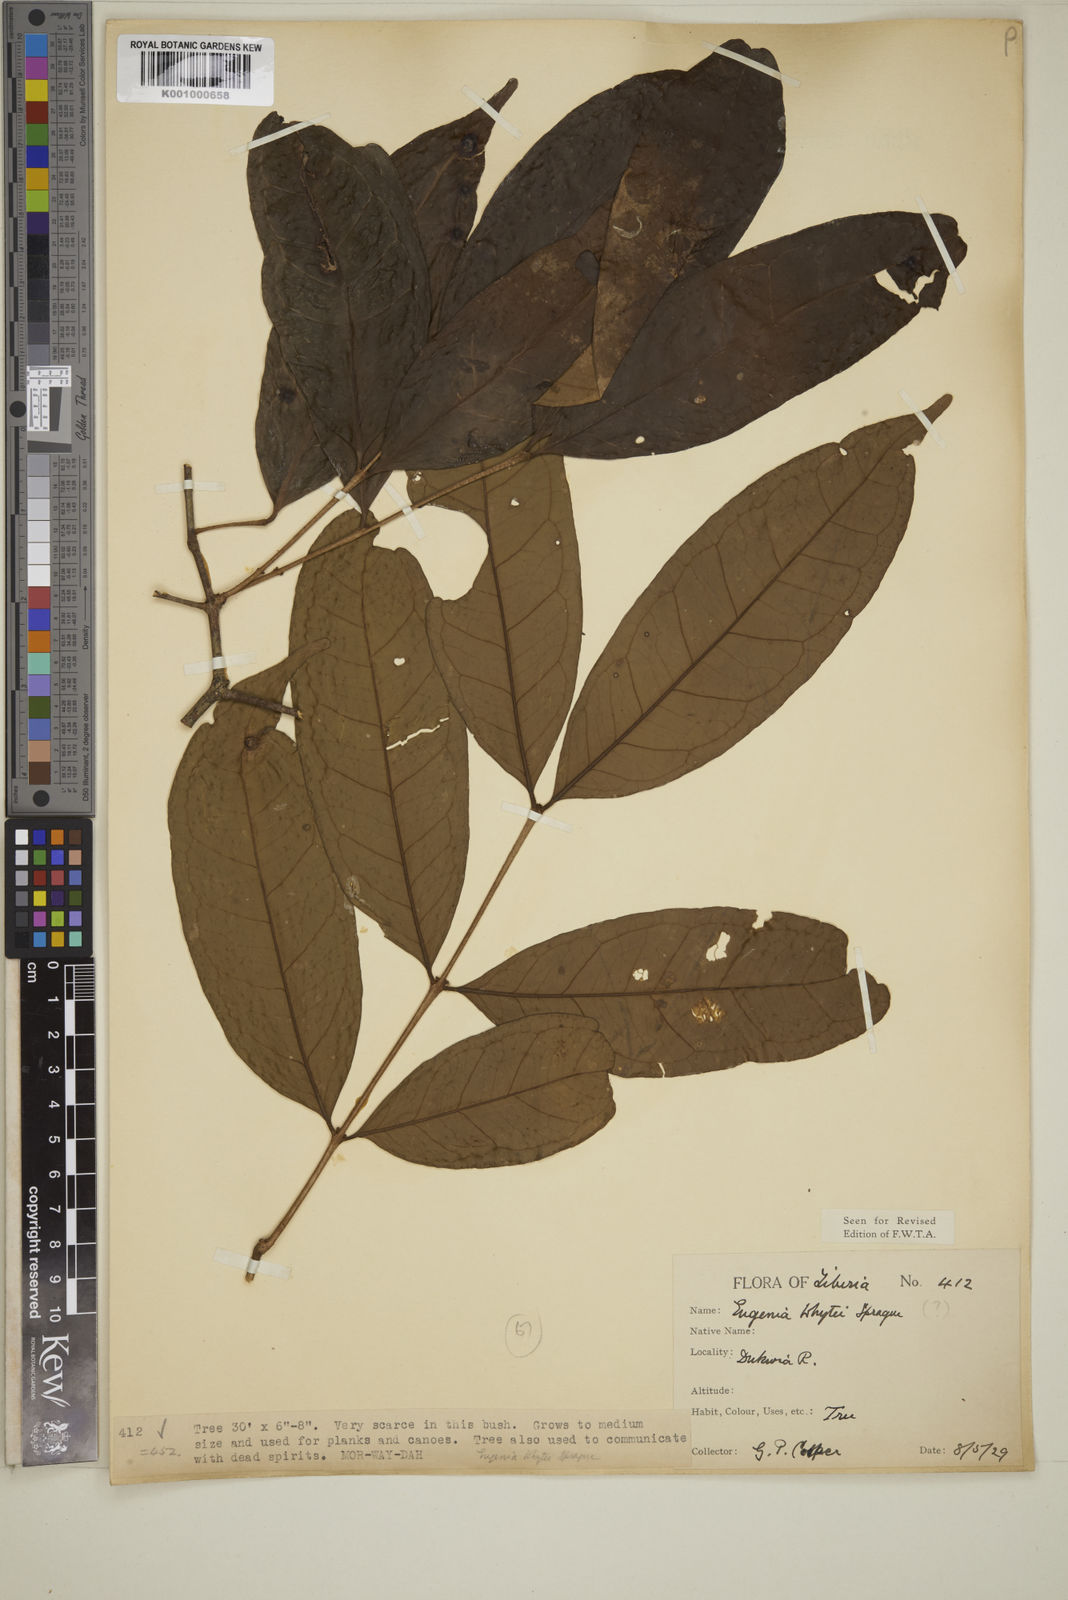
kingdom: Plantae
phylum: Tracheophyta
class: Magnoliopsida
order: Myrtales
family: Myrtaceae
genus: Eugenia
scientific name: Eugenia whytei
